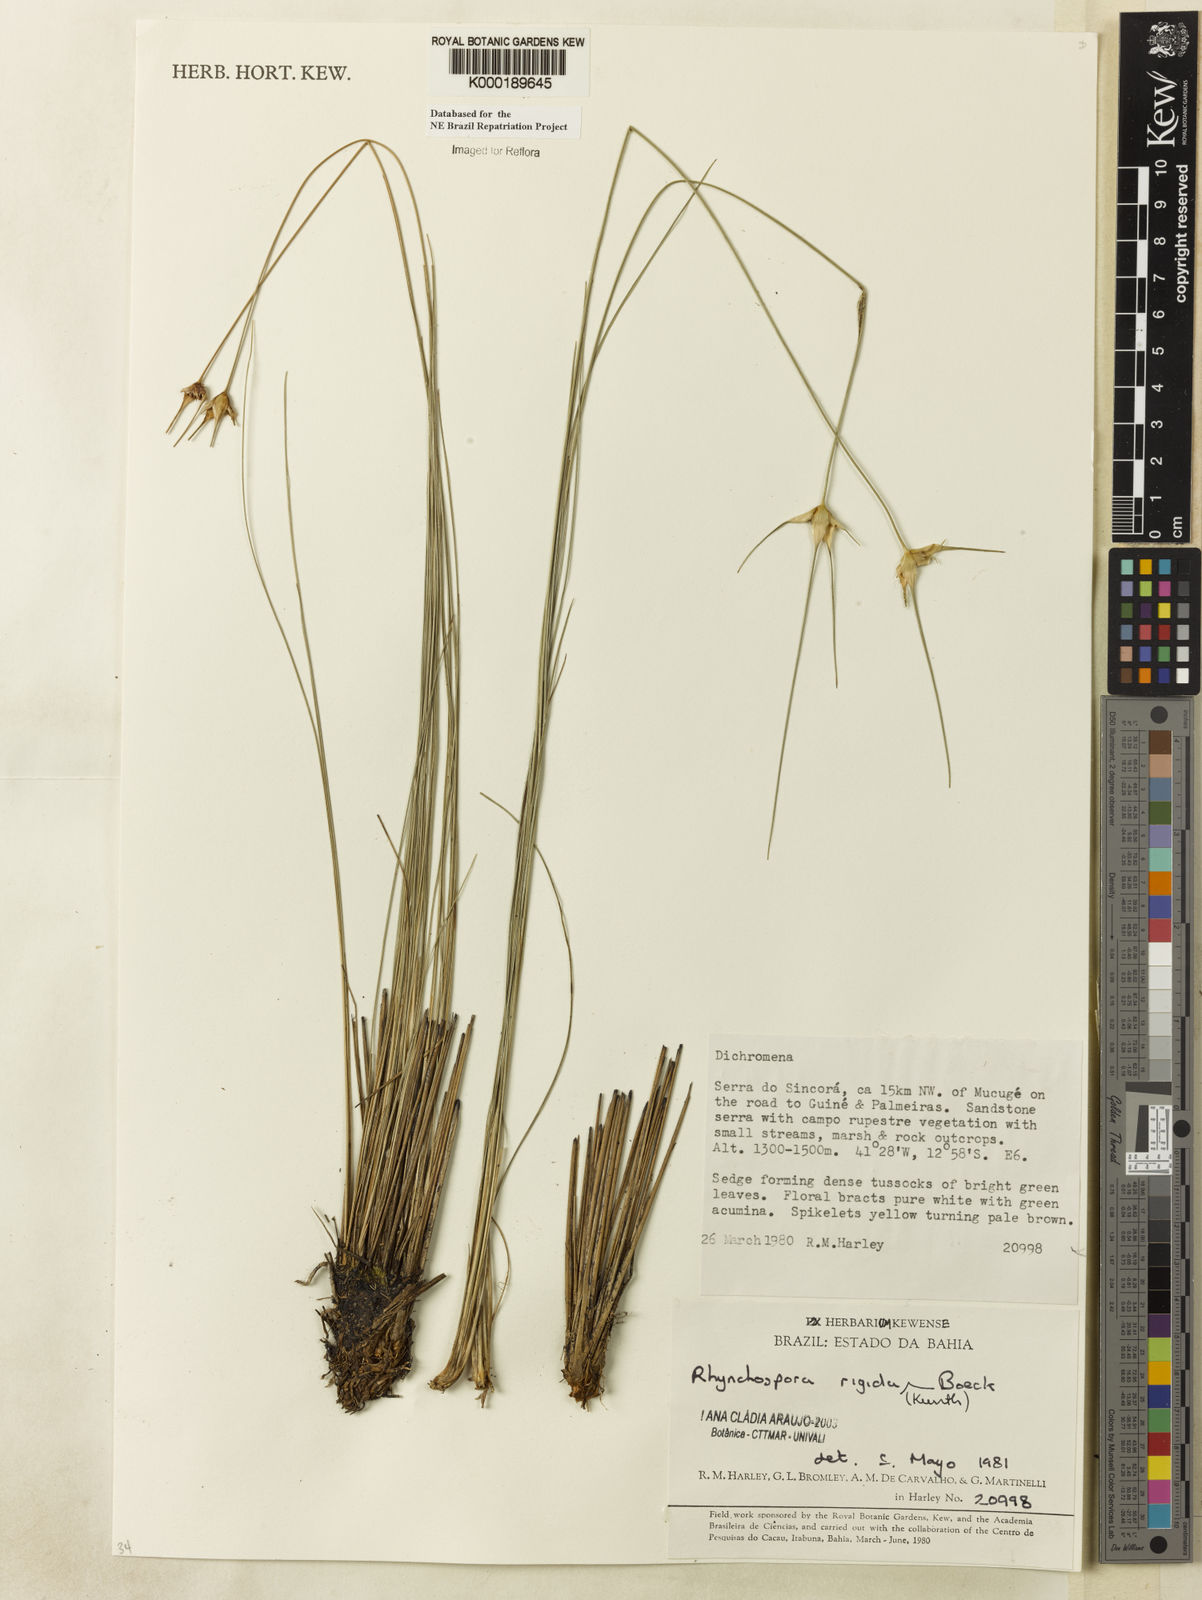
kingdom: Plantae
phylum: Tracheophyta
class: Liliopsida
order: Poales
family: Cyperaceae
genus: Rhynchospora
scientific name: Rhynchospora consanguinea
